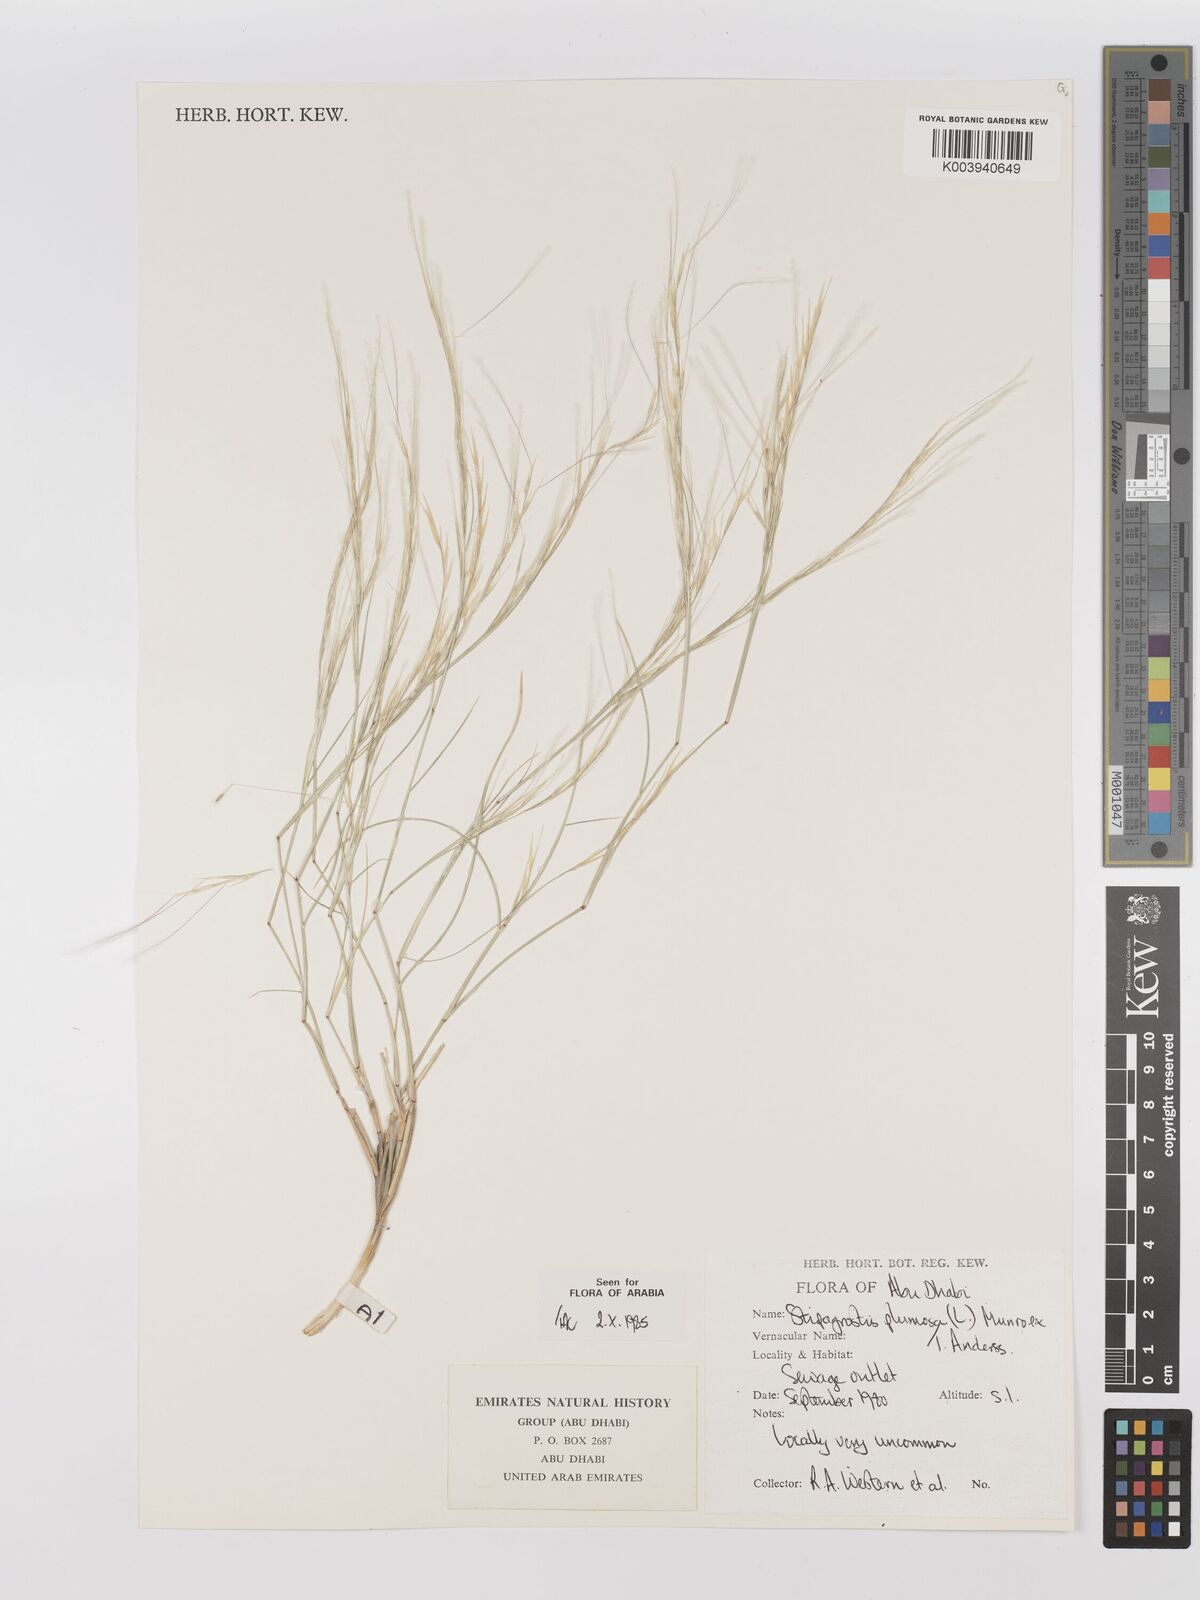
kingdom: Plantae
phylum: Tracheophyta
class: Liliopsida
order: Poales
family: Poaceae
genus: Stipagrostis
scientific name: Stipagrostis plumosa
